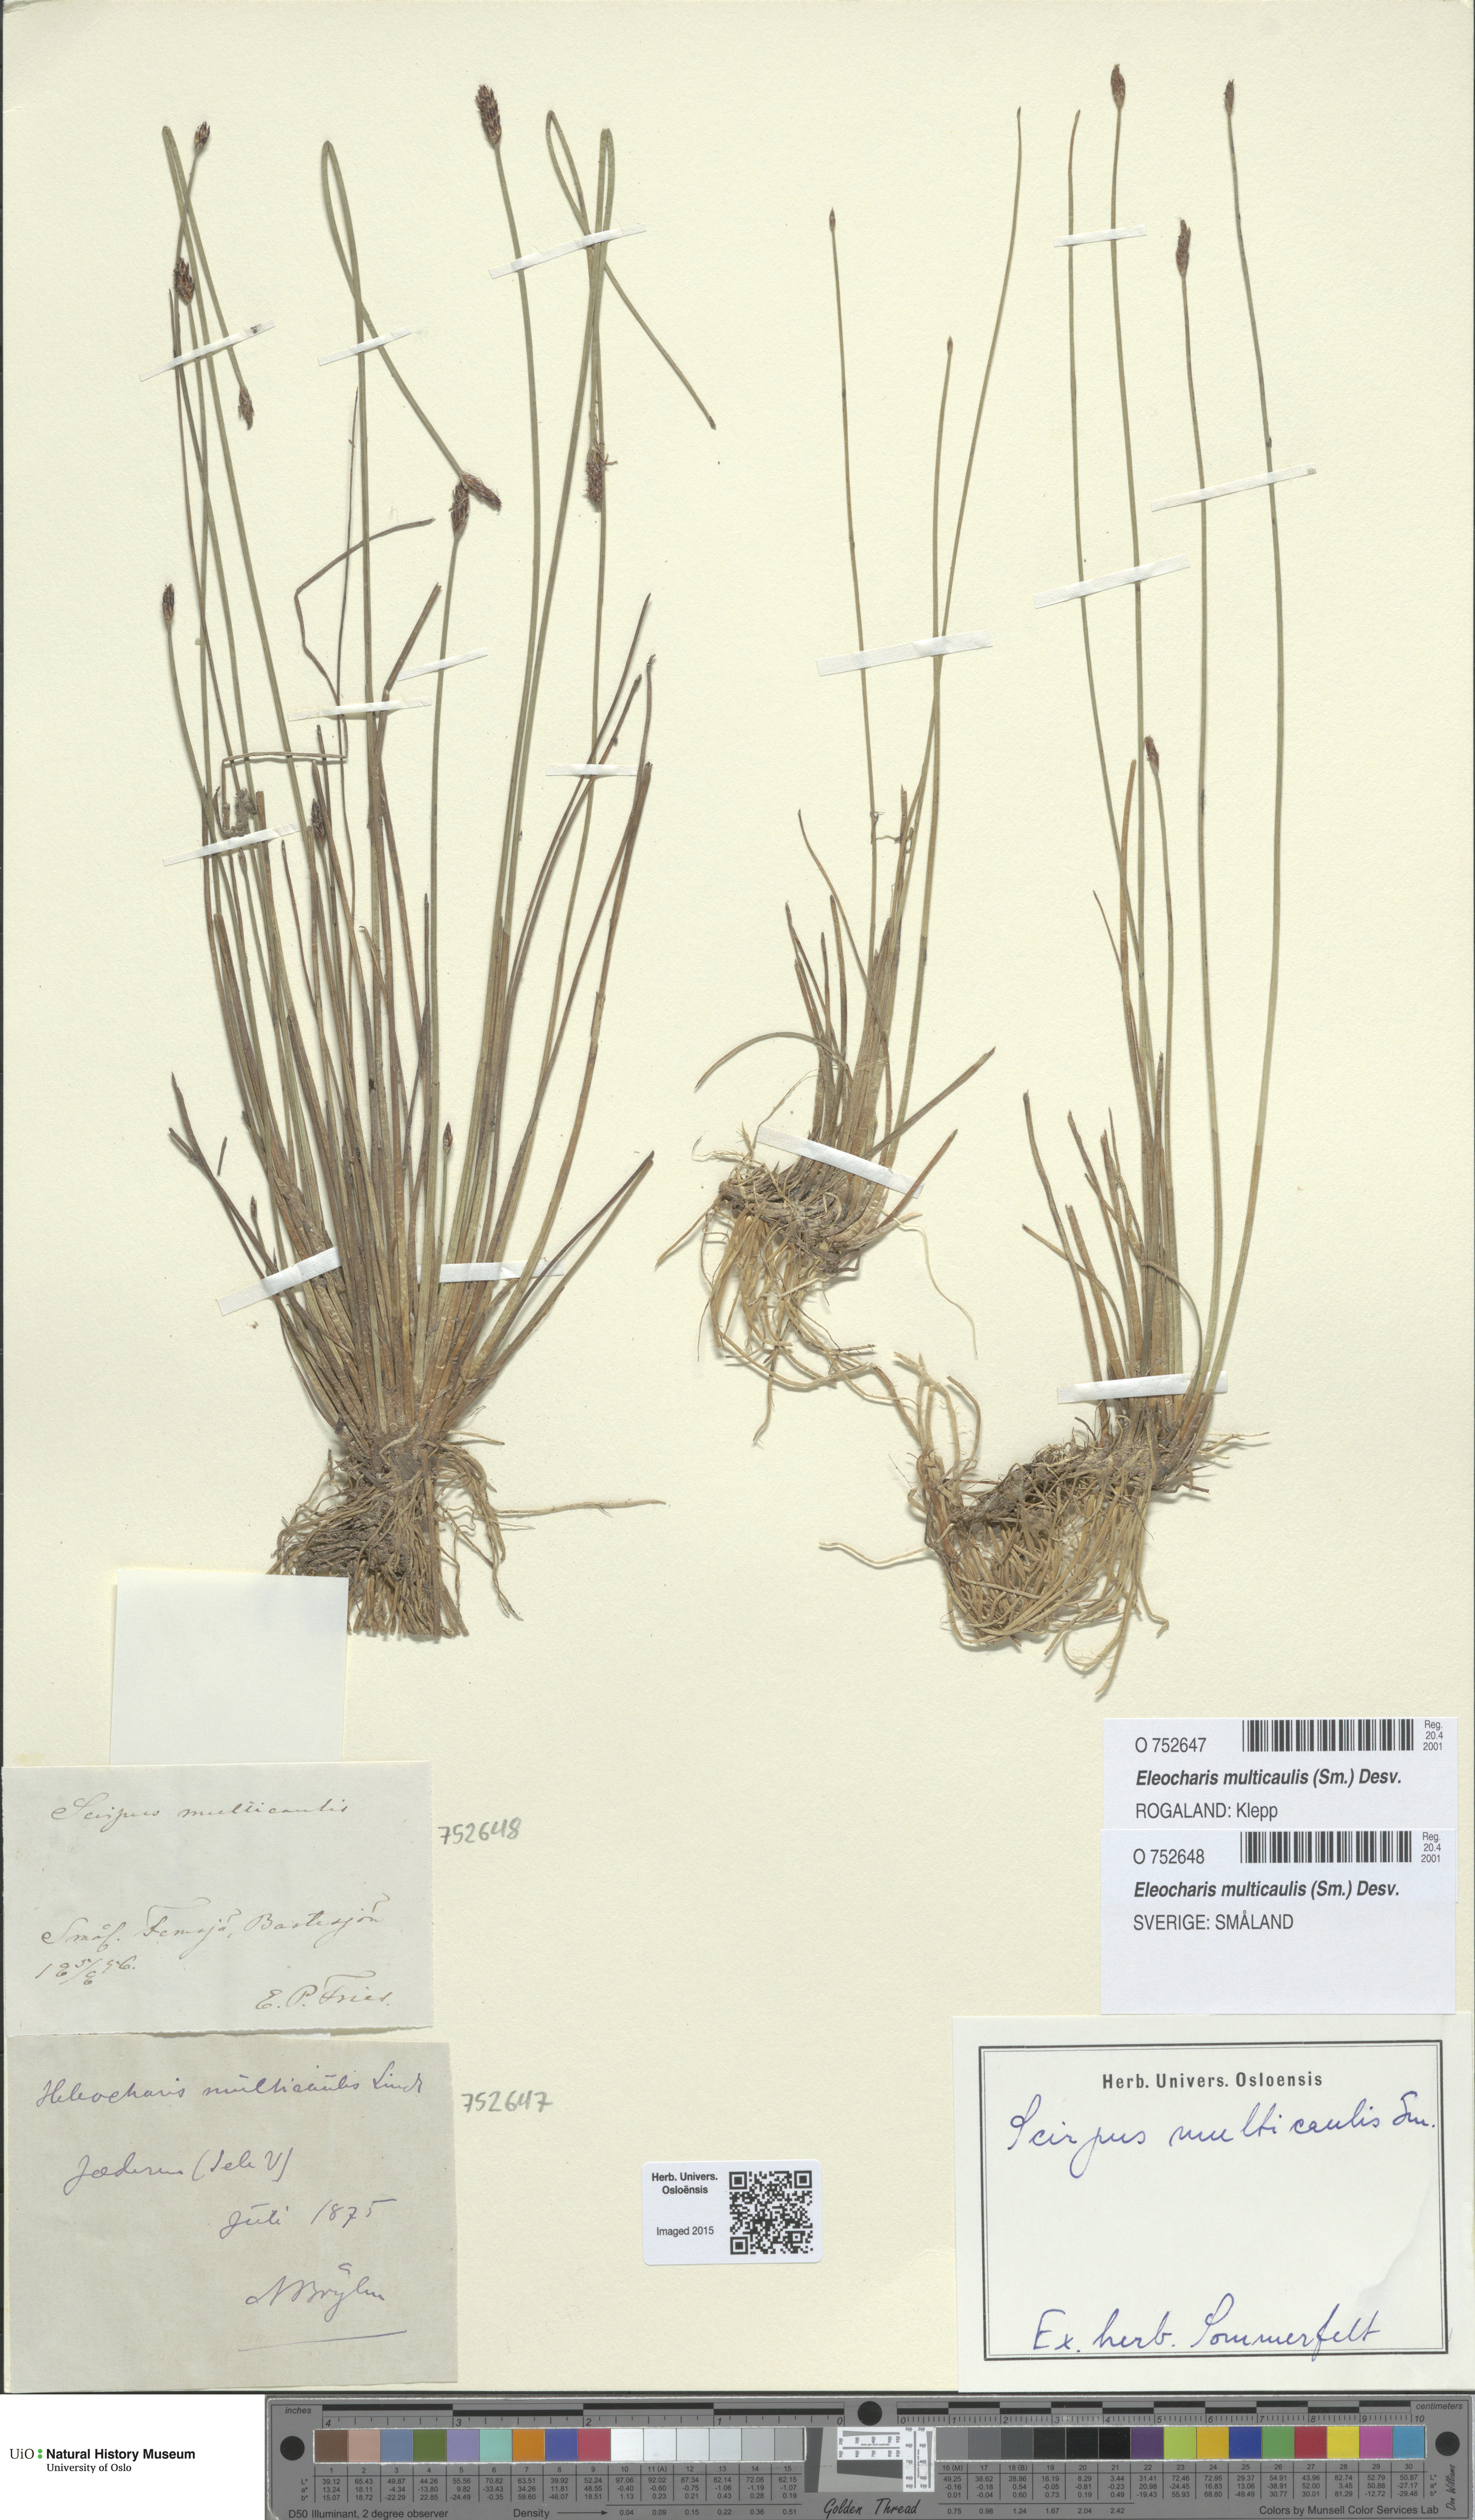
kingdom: Plantae
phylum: Tracheophyta
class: Liliopsida
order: Poales
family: Cyperaceae
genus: Eleocharis
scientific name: Eleocharis multicaulis
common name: Many-stalked spike-rush
